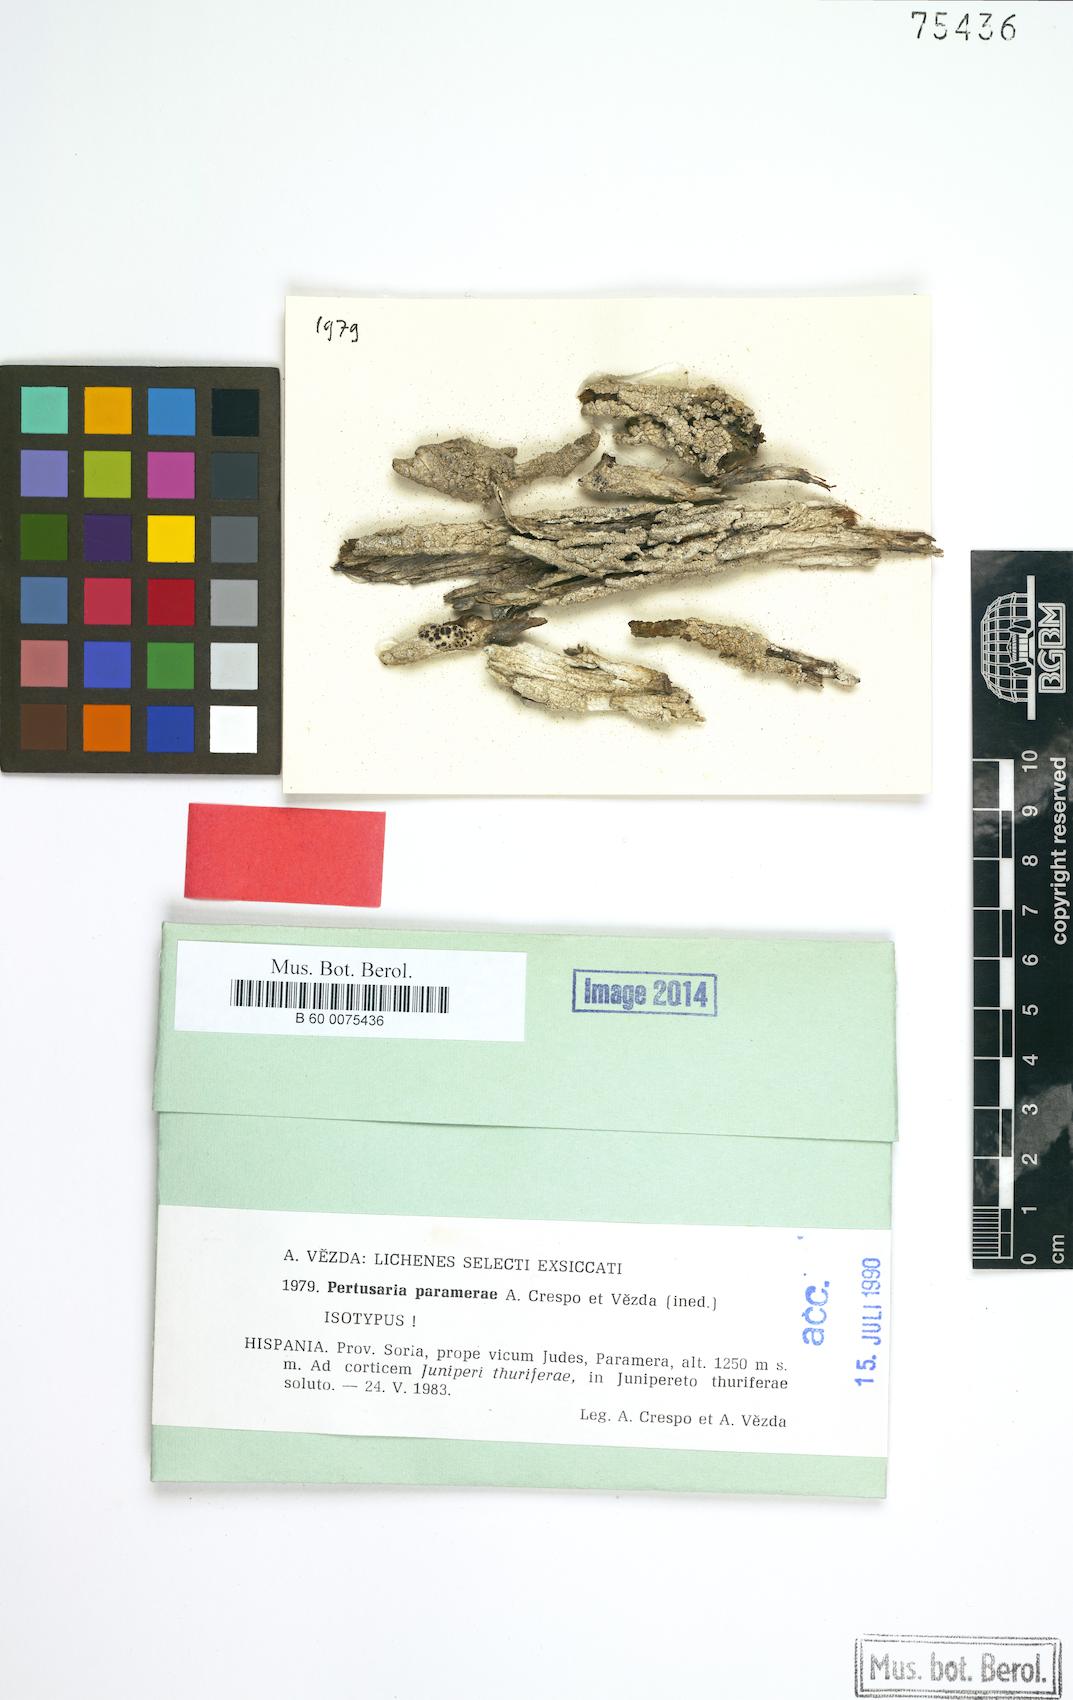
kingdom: Fungi
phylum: Ascomycota
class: Lecanoromycetes
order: Pertusariales
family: Pertusariaceae
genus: Pertusaria
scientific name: Pertusaria paramerae
